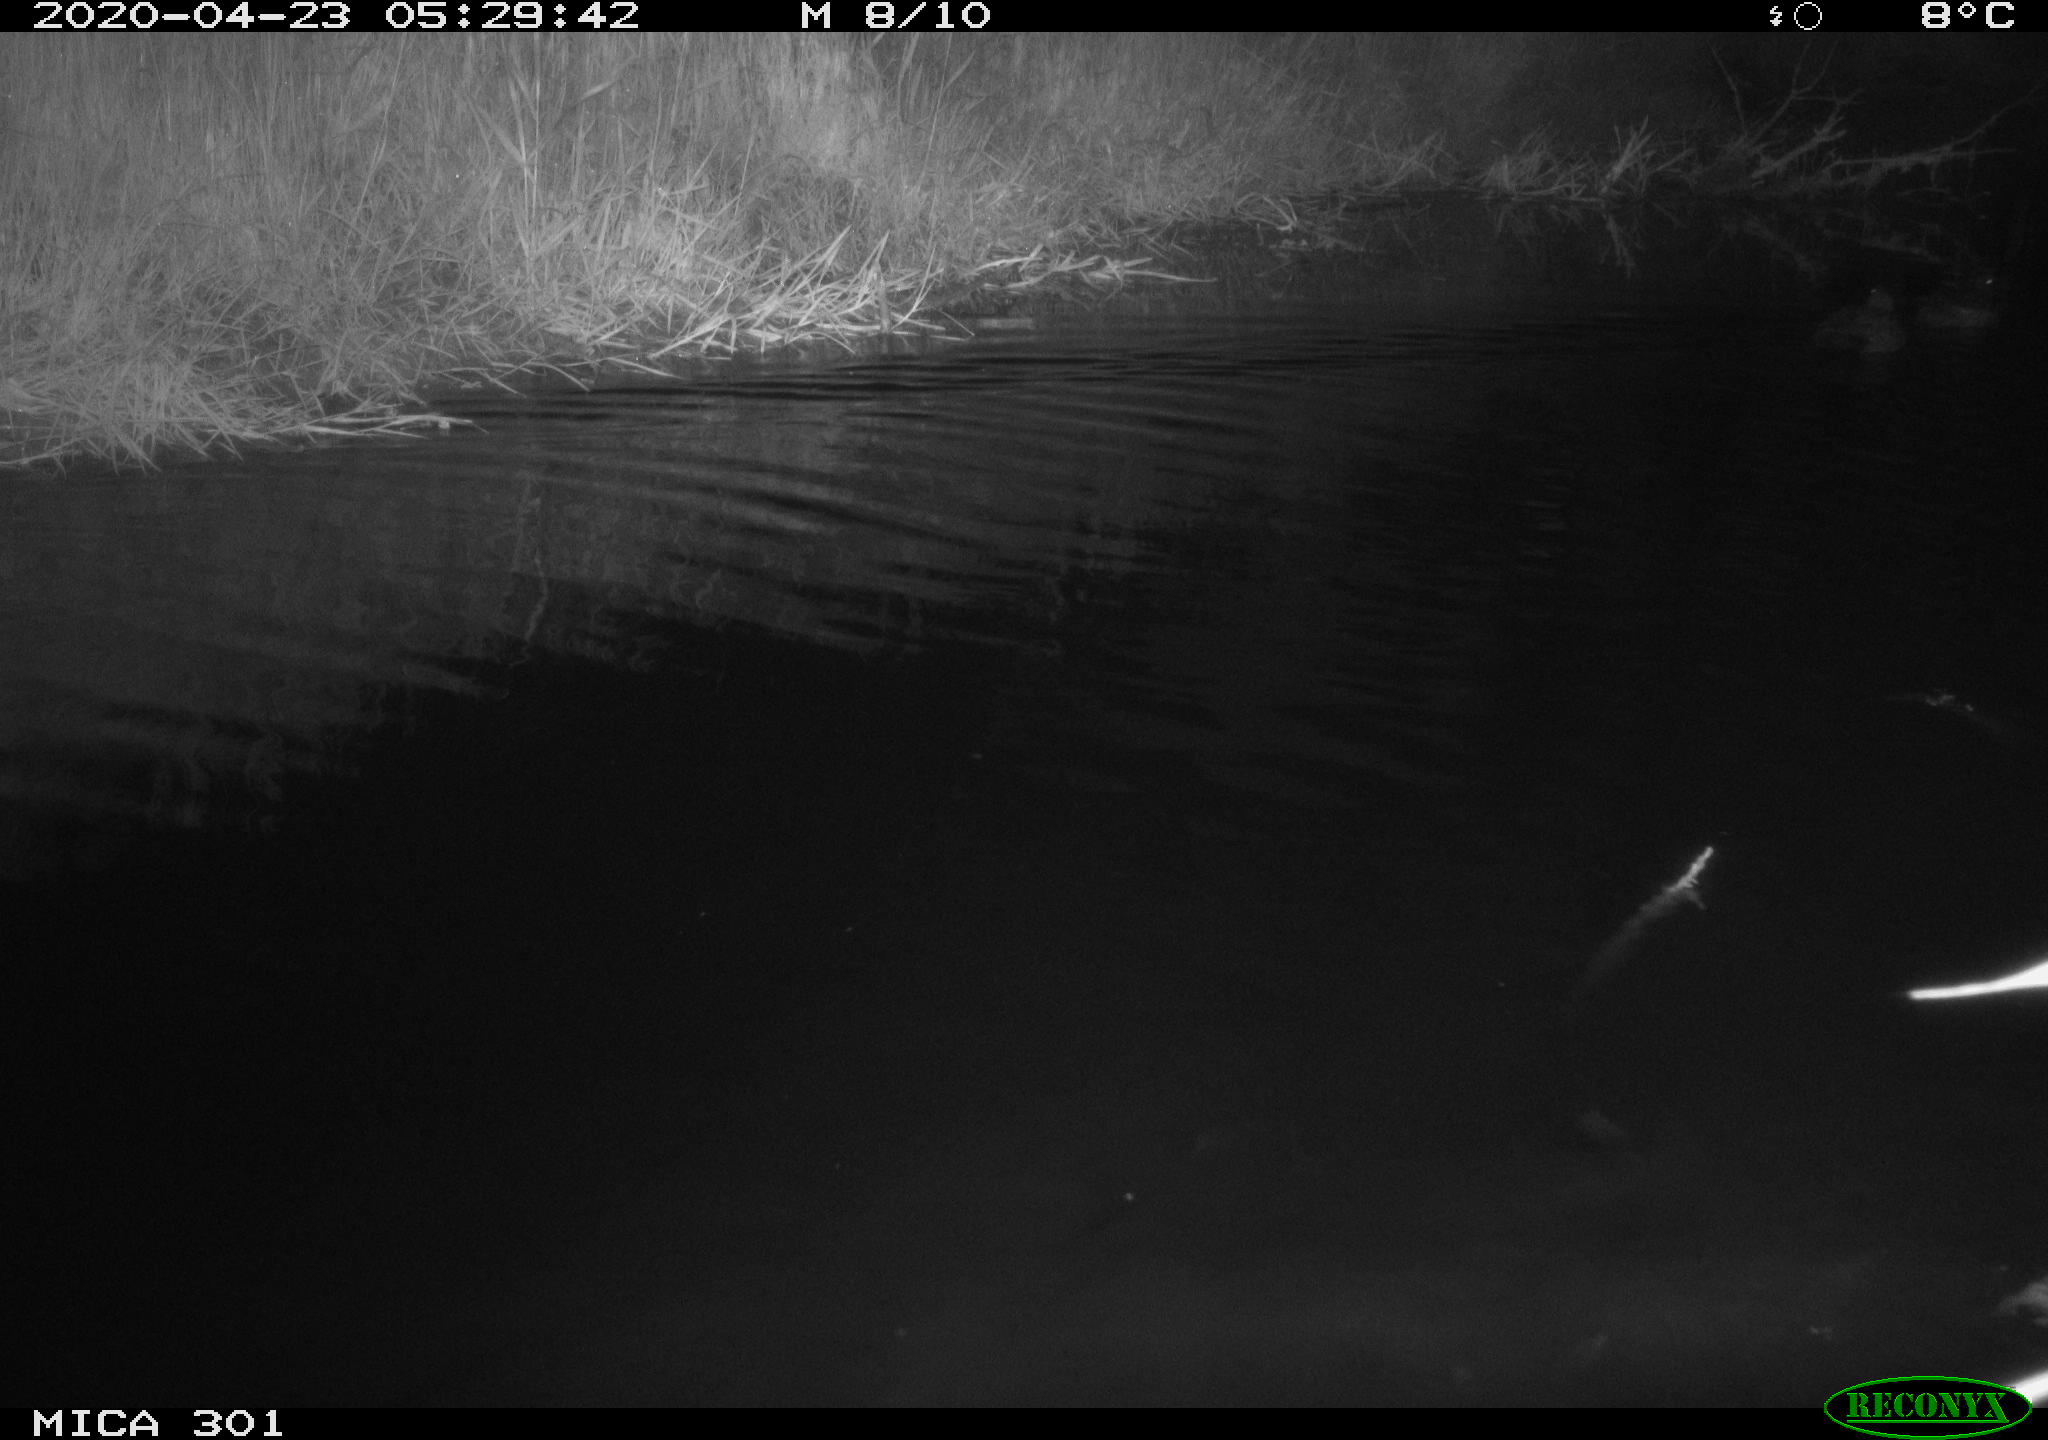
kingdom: Animalia
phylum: Chordata
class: Aves
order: Anseriformes
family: Anatidae
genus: Mareca
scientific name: Mareca strepera
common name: Gadwall
